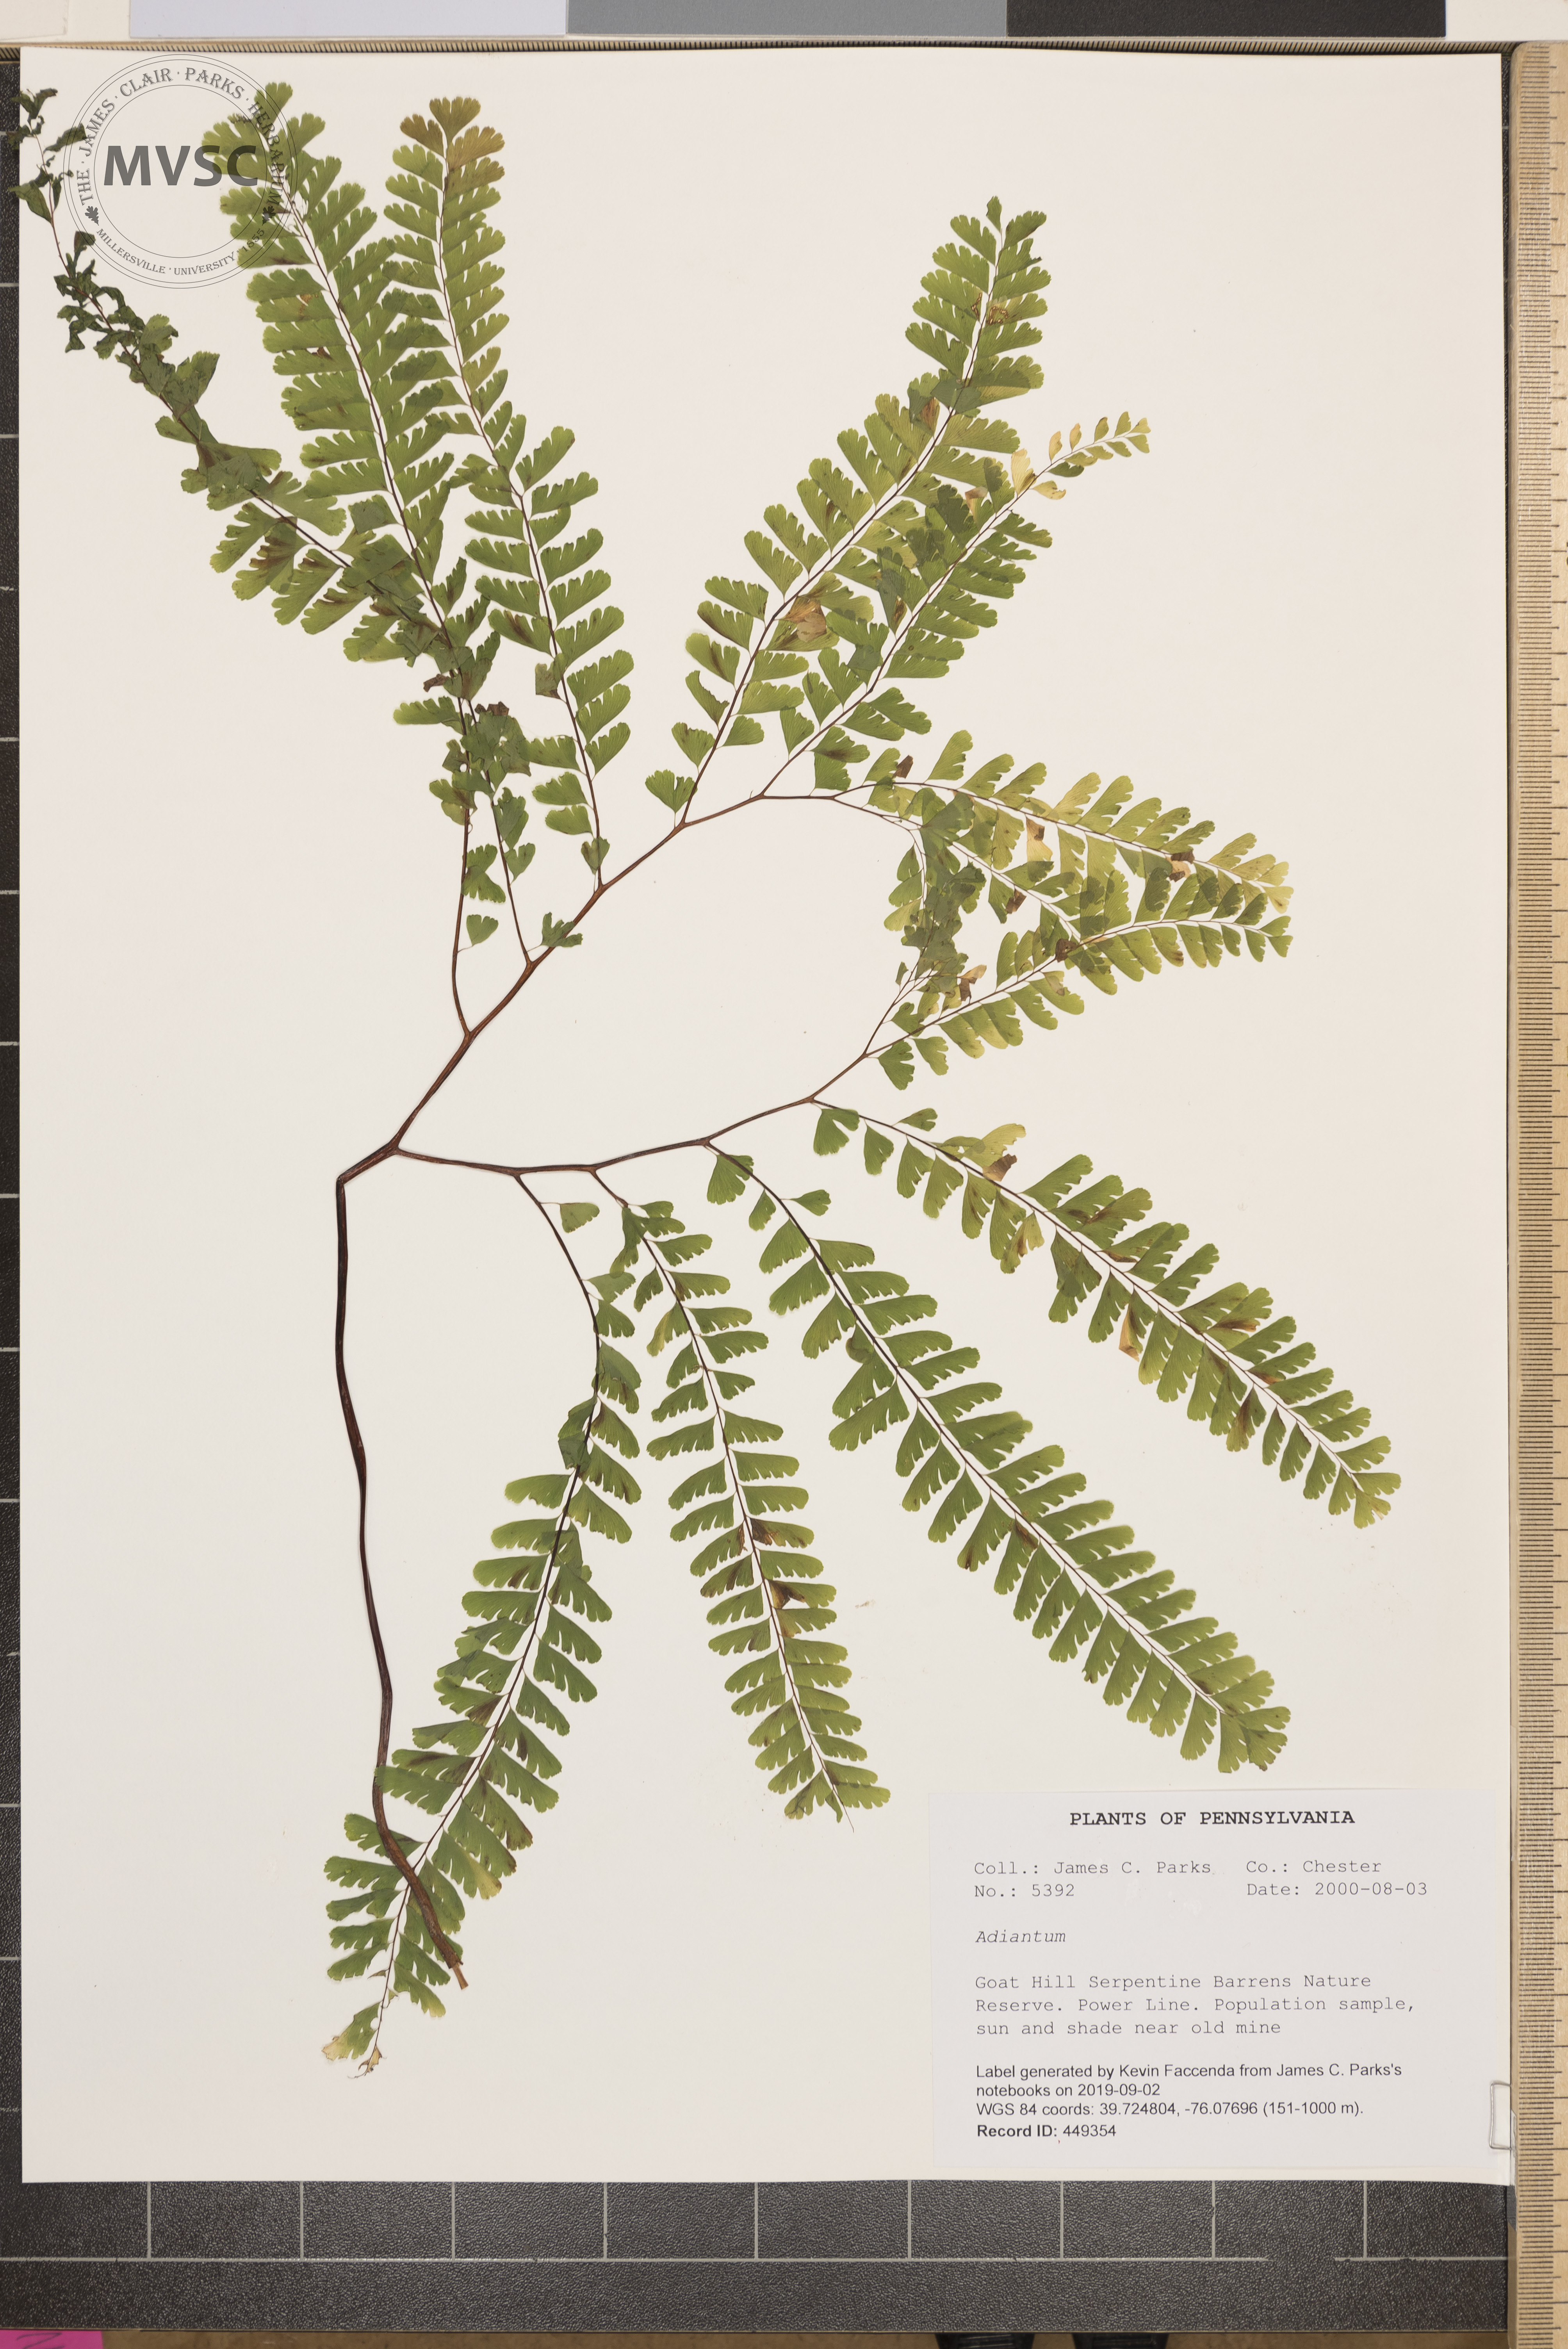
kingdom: Plantae
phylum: Tracheophyta
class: Polypodiopsida
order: Polypodiales
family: Pteridaceae
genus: Adiantum
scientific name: Adiantum
